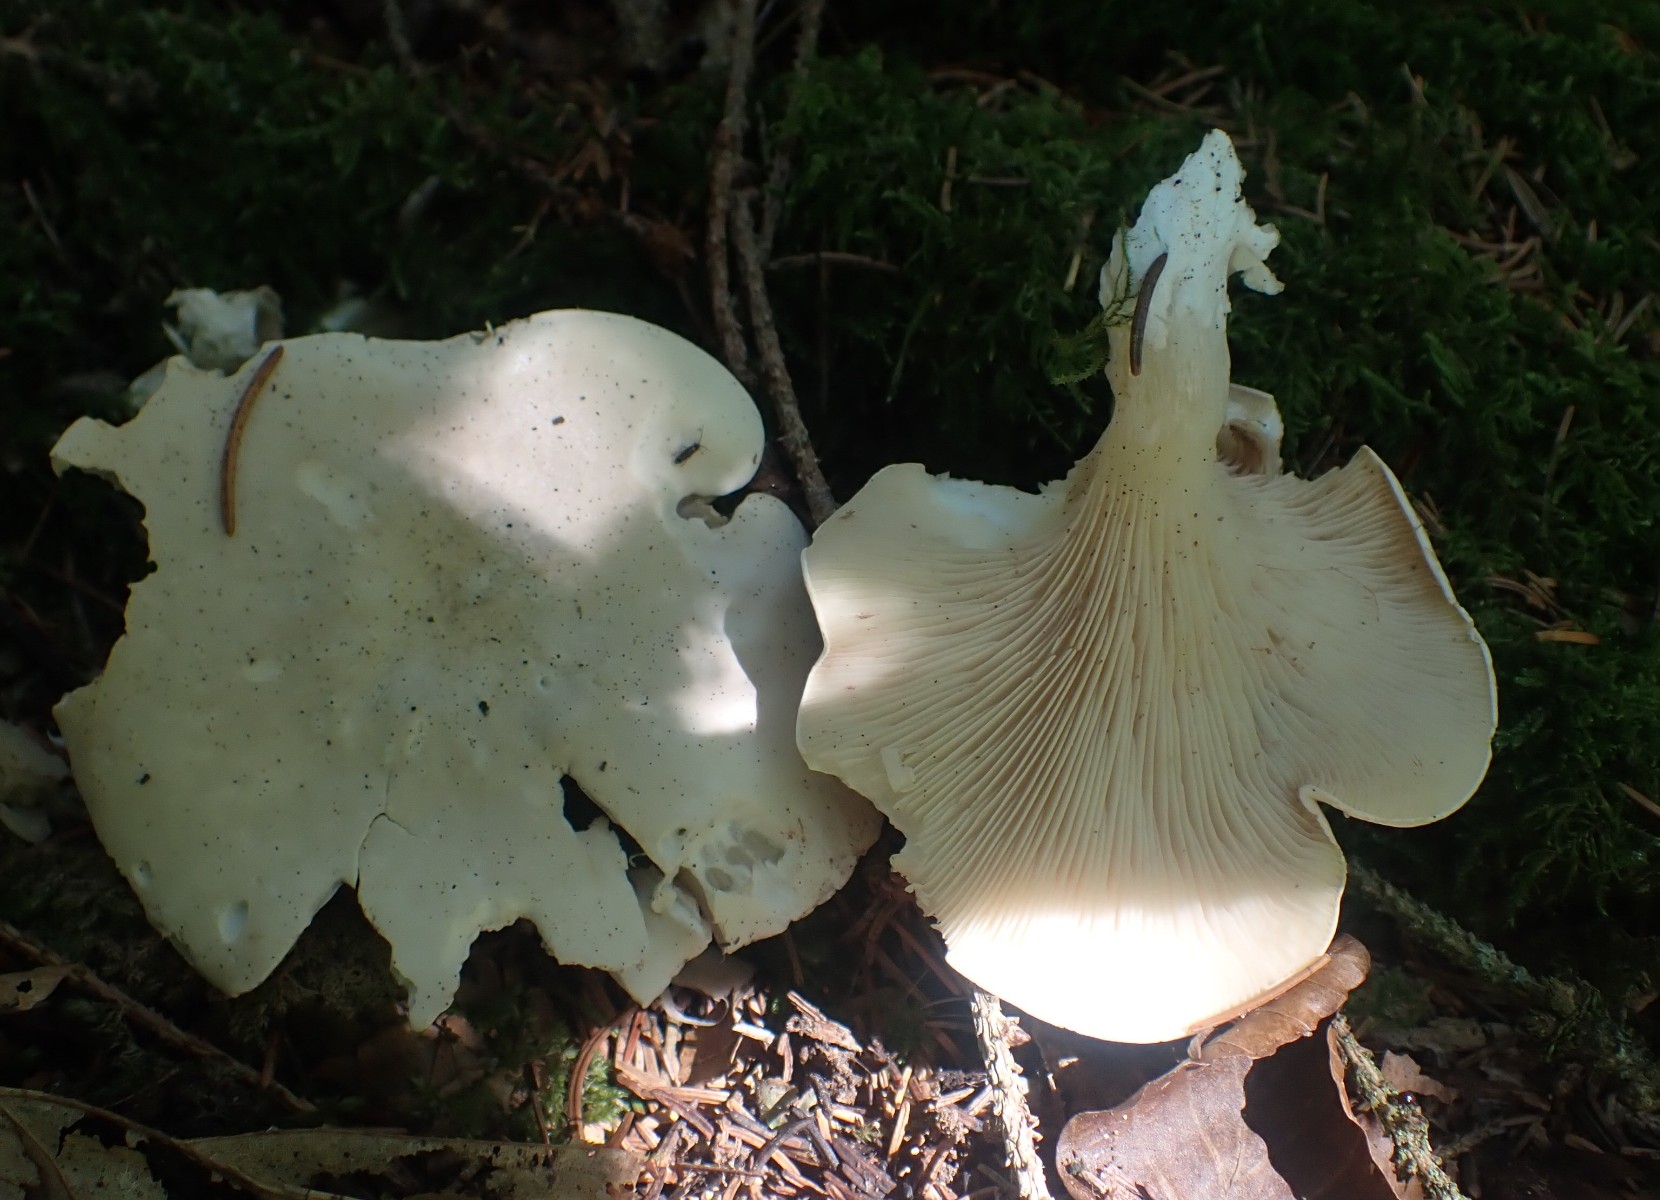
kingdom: Fungi
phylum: Basidiomycota
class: Agaricomycetes
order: Agaricales
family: Entolomataceae
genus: Clitopilus
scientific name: Clitopilus prunulus
